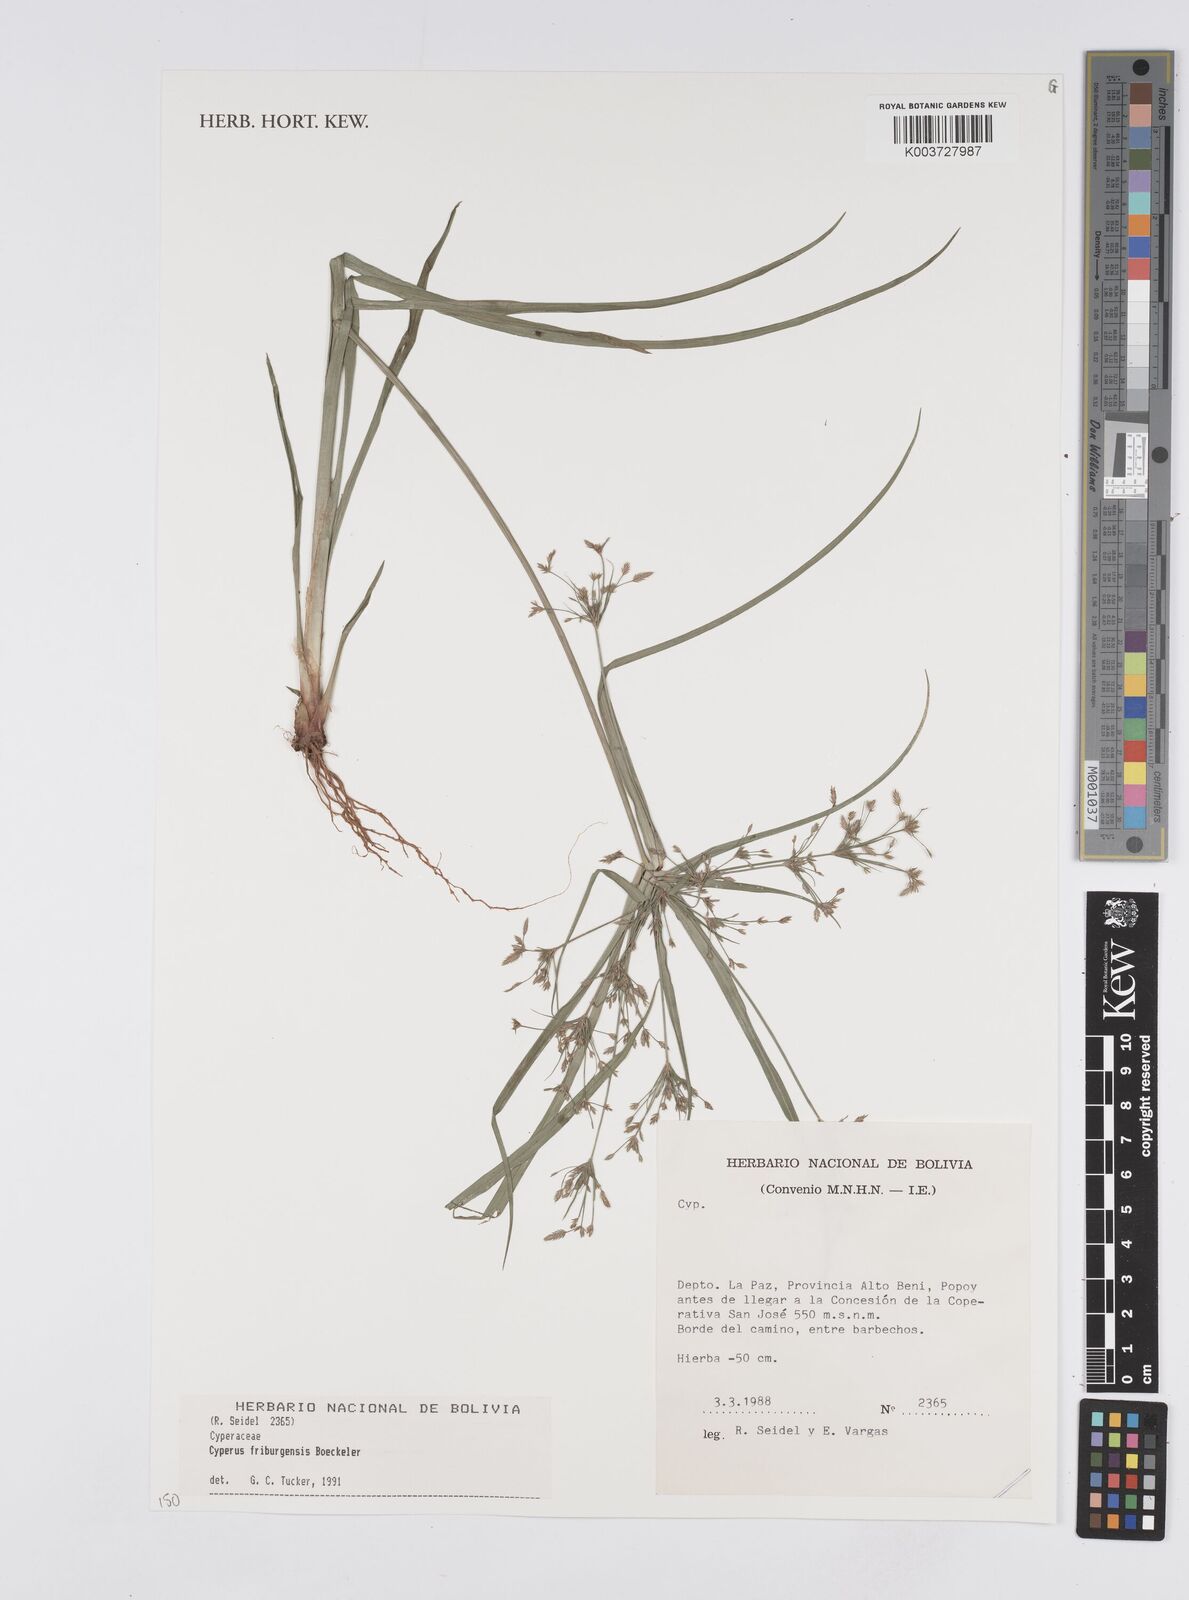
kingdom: Plantae
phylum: Tracheophyta
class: Liliopsida
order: Poales
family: Cyperaceae
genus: Cyperus
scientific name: Cyperus friburgensis
